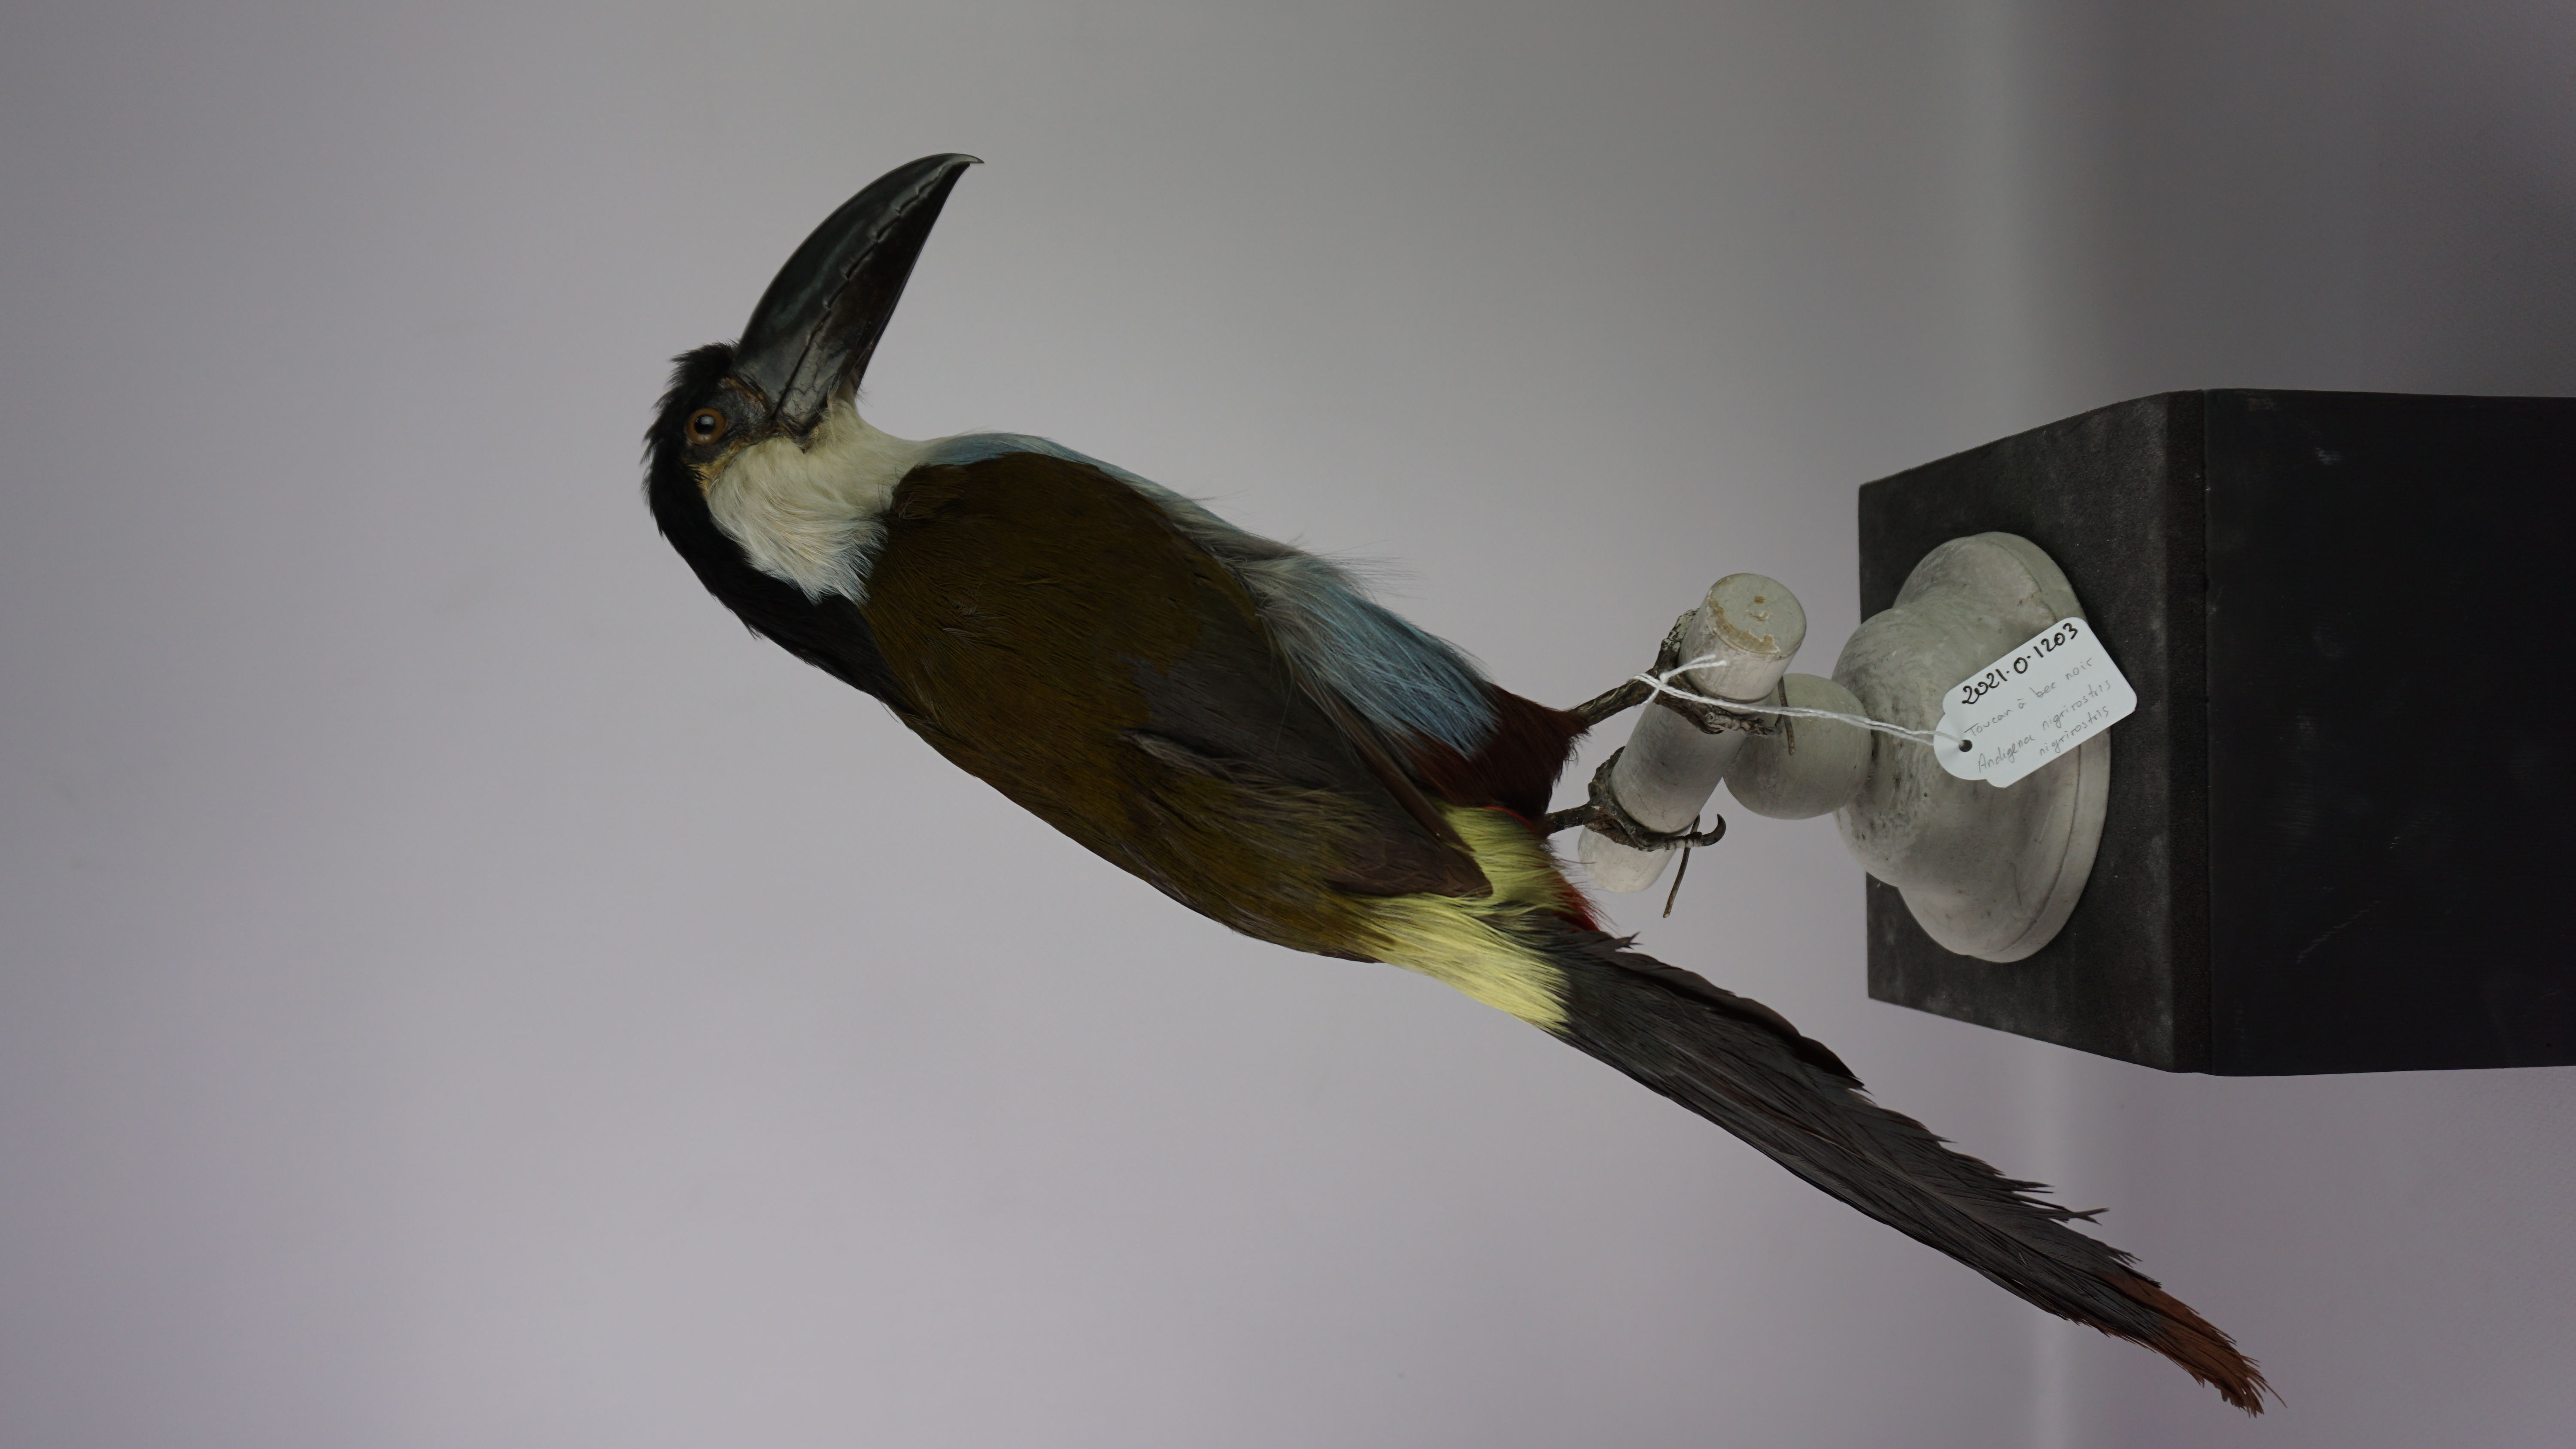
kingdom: Animalia
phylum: Chordata
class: Aves
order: Piciformes
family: Ramphastidae
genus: Andigena
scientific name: Andigena nigrirostris
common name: Black-billed mountain toucan
